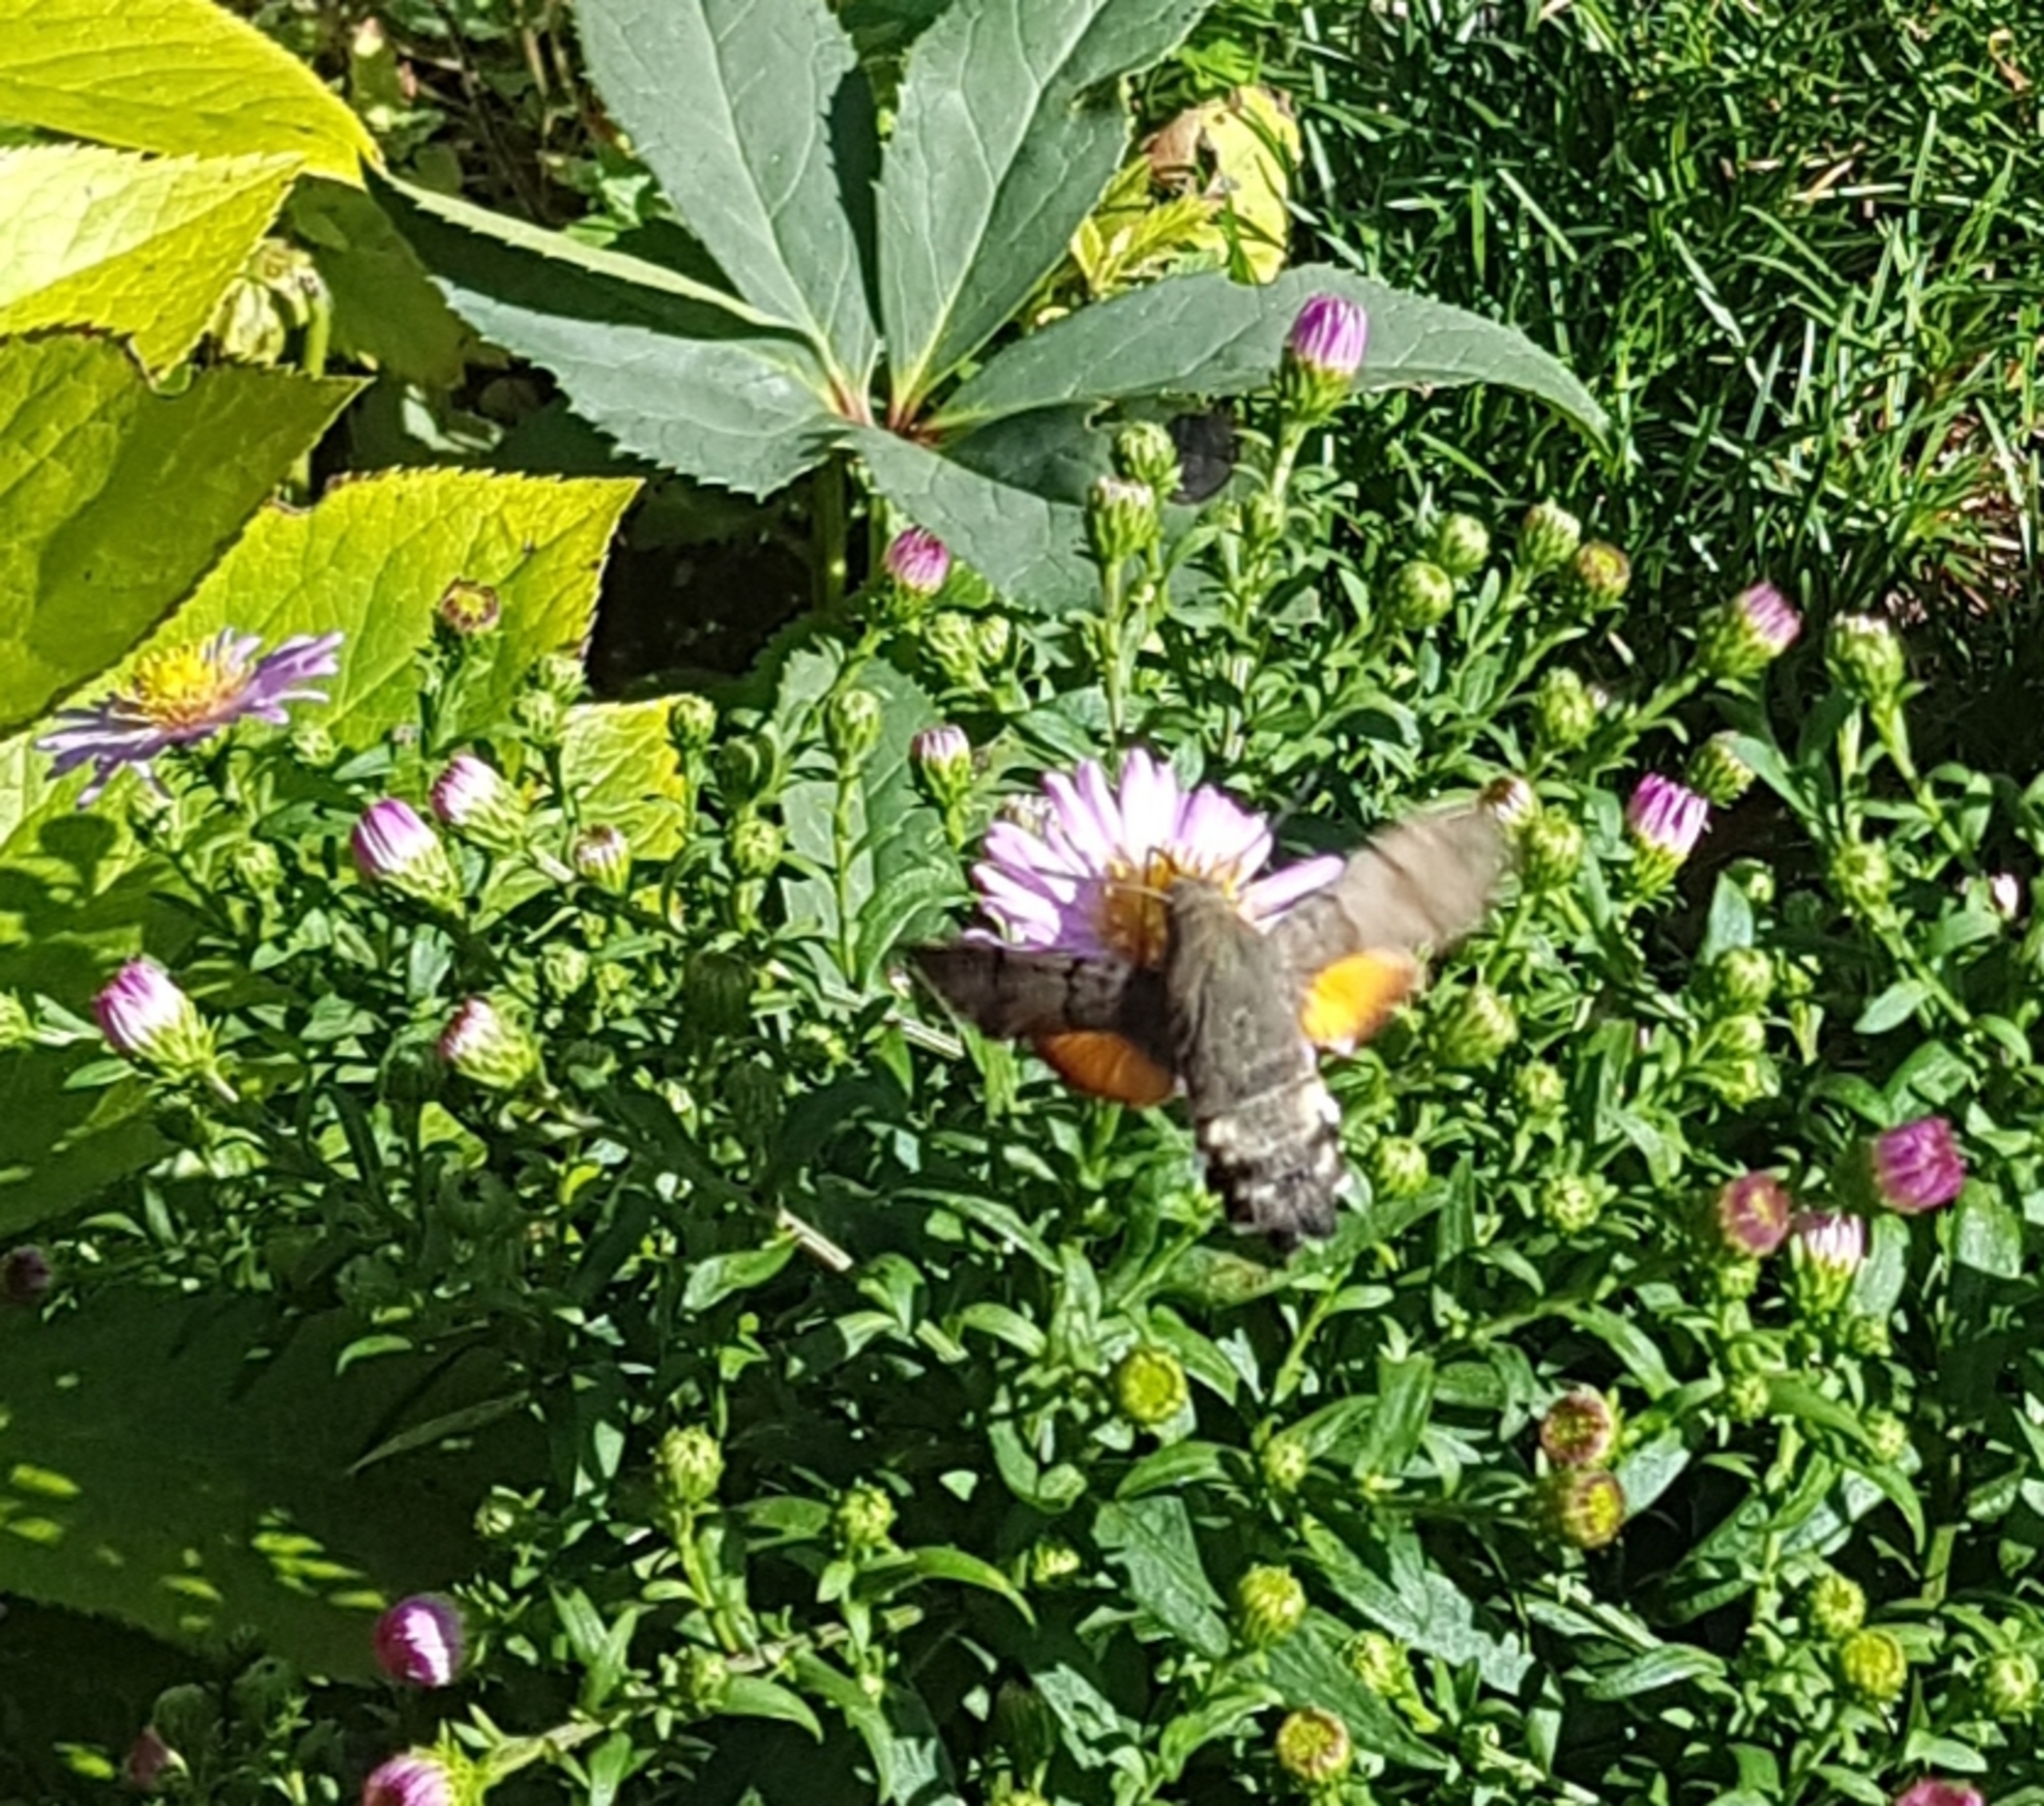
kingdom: Animalia
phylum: Arthropoda
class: Insecta
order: Lepidoptera
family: Sphingidae
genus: Macroglossum
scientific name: Macroglossum stellatarum
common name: Duehale
